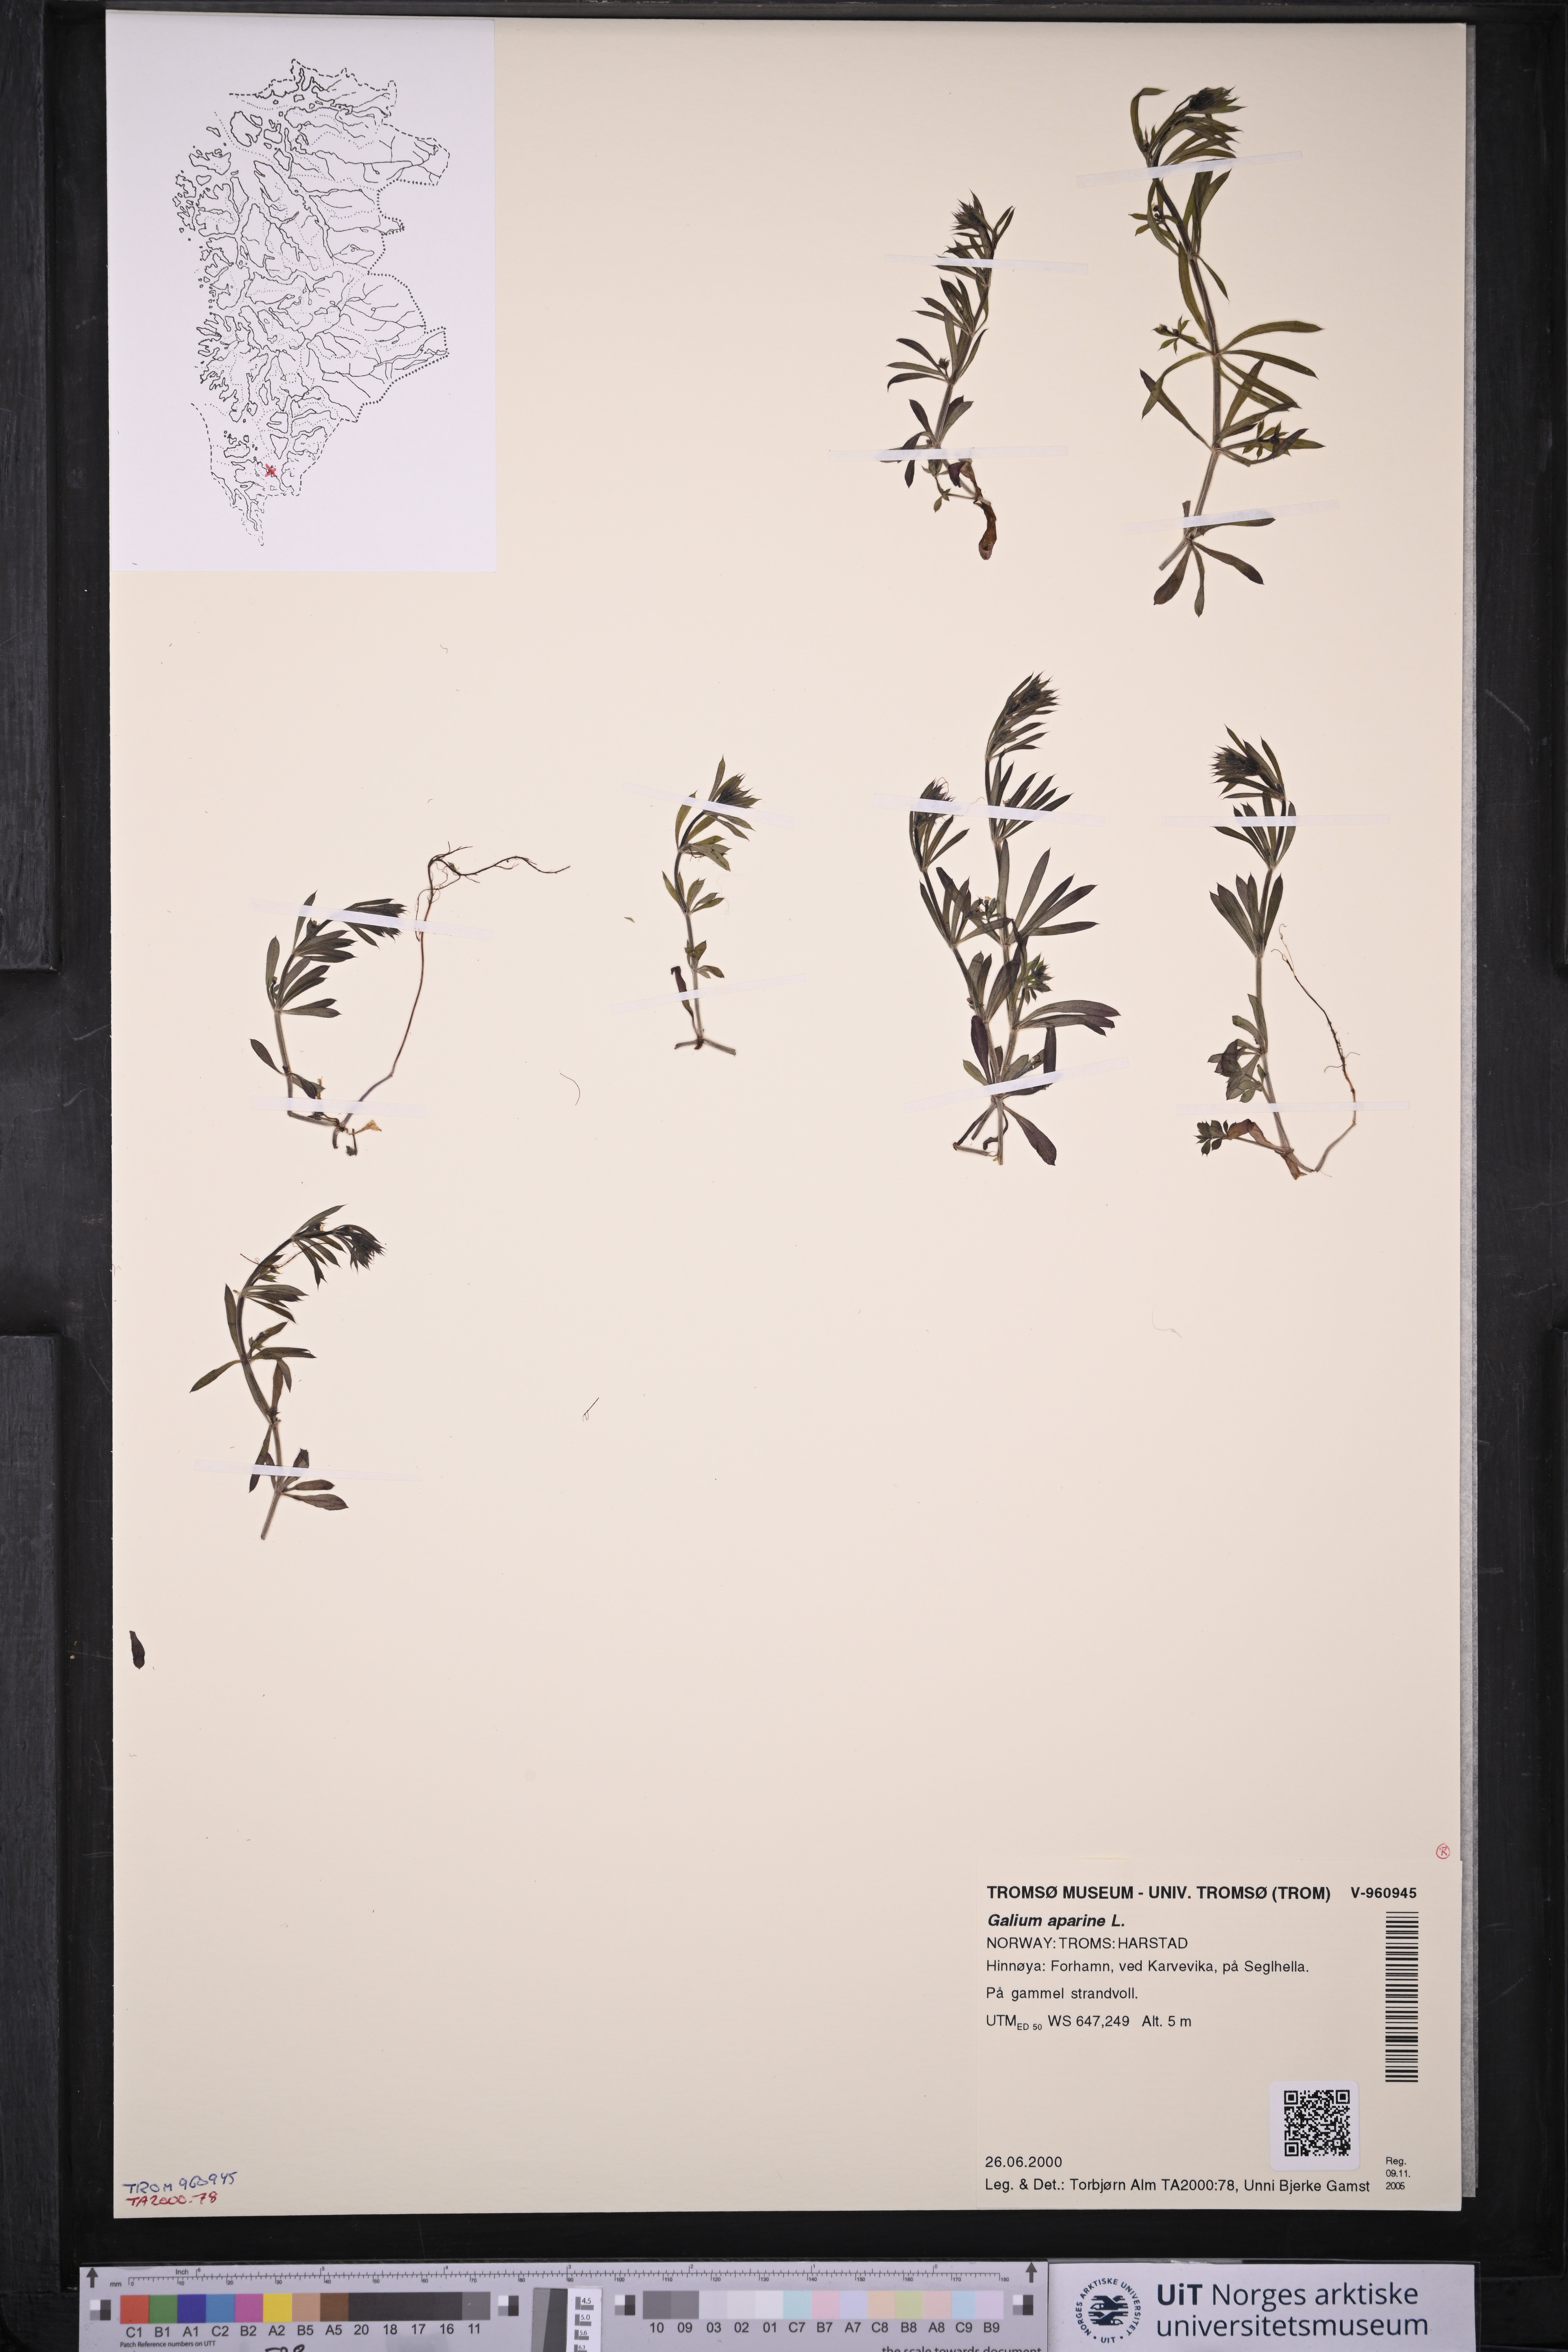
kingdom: Plantae
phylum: Tracheophyta
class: Magnoliopsida
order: Gentianales
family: Rubiaceae
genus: Galium
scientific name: Galium aparine
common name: Cleavers
